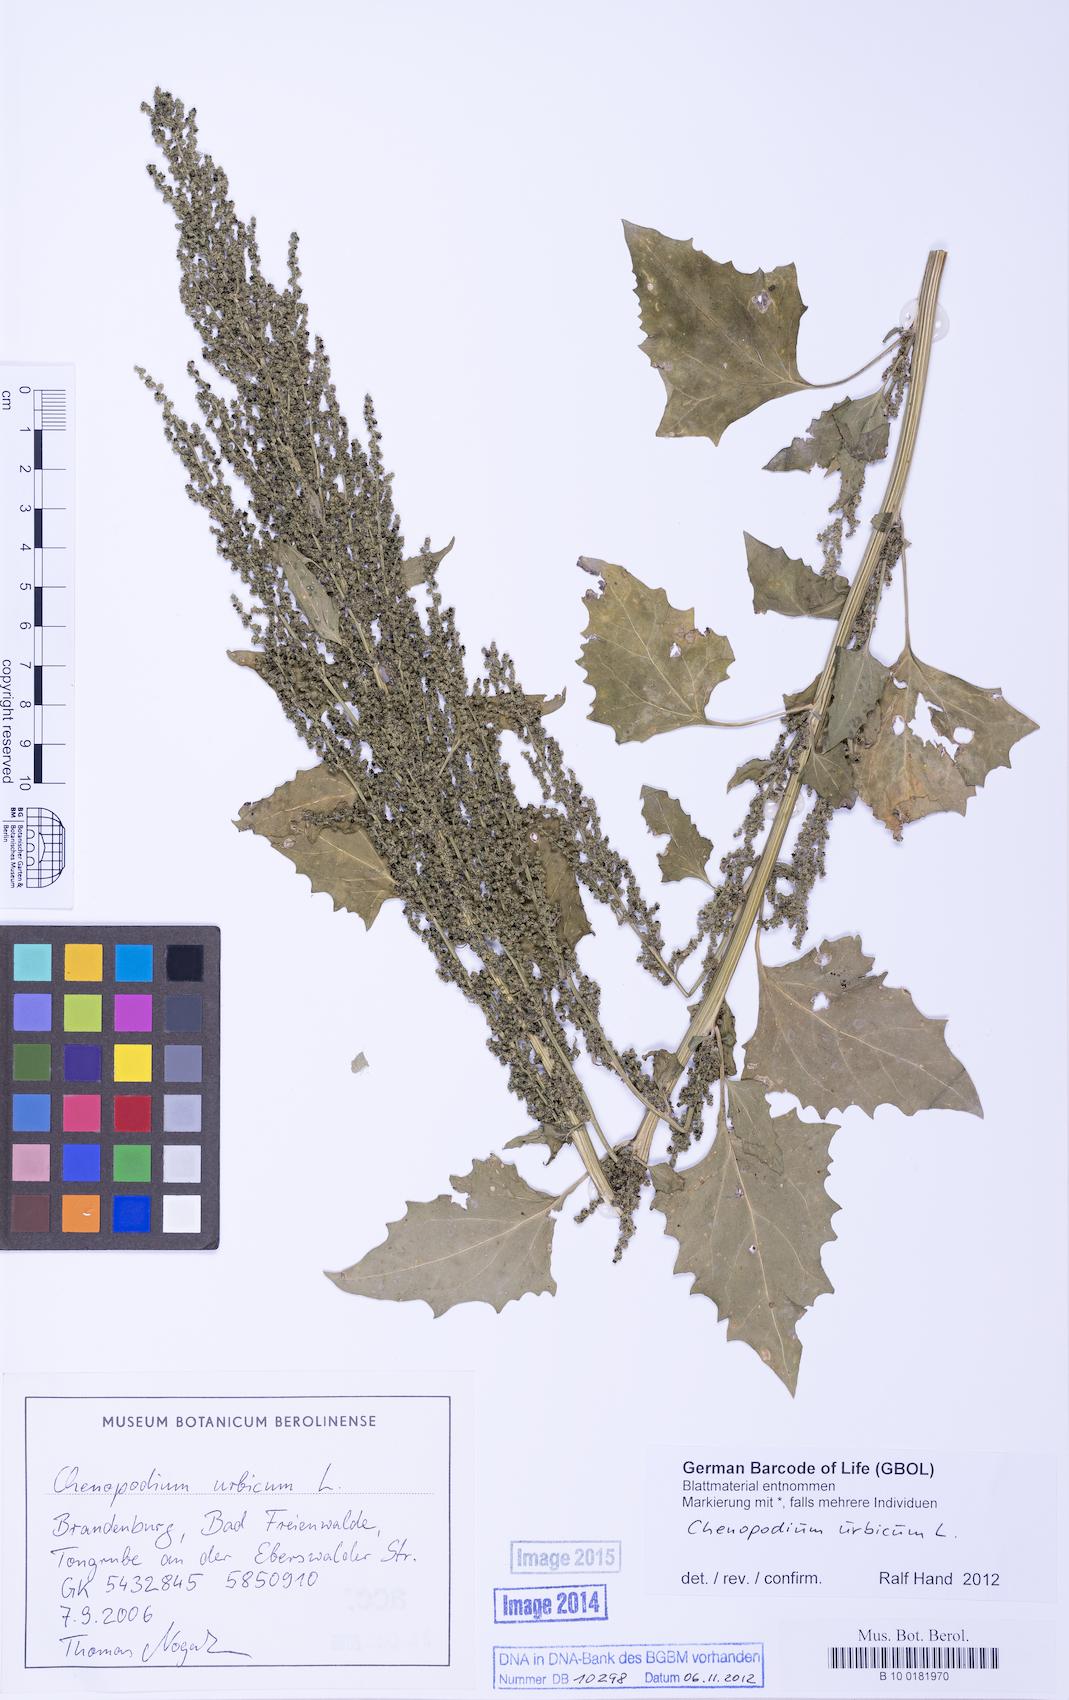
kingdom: Plantae
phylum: Tracheophyta
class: Magnoliopsida
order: Caryophyllales
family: Amaranthaceae
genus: Oxybasis
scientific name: Oxybasis urbica
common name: City goosefoot
